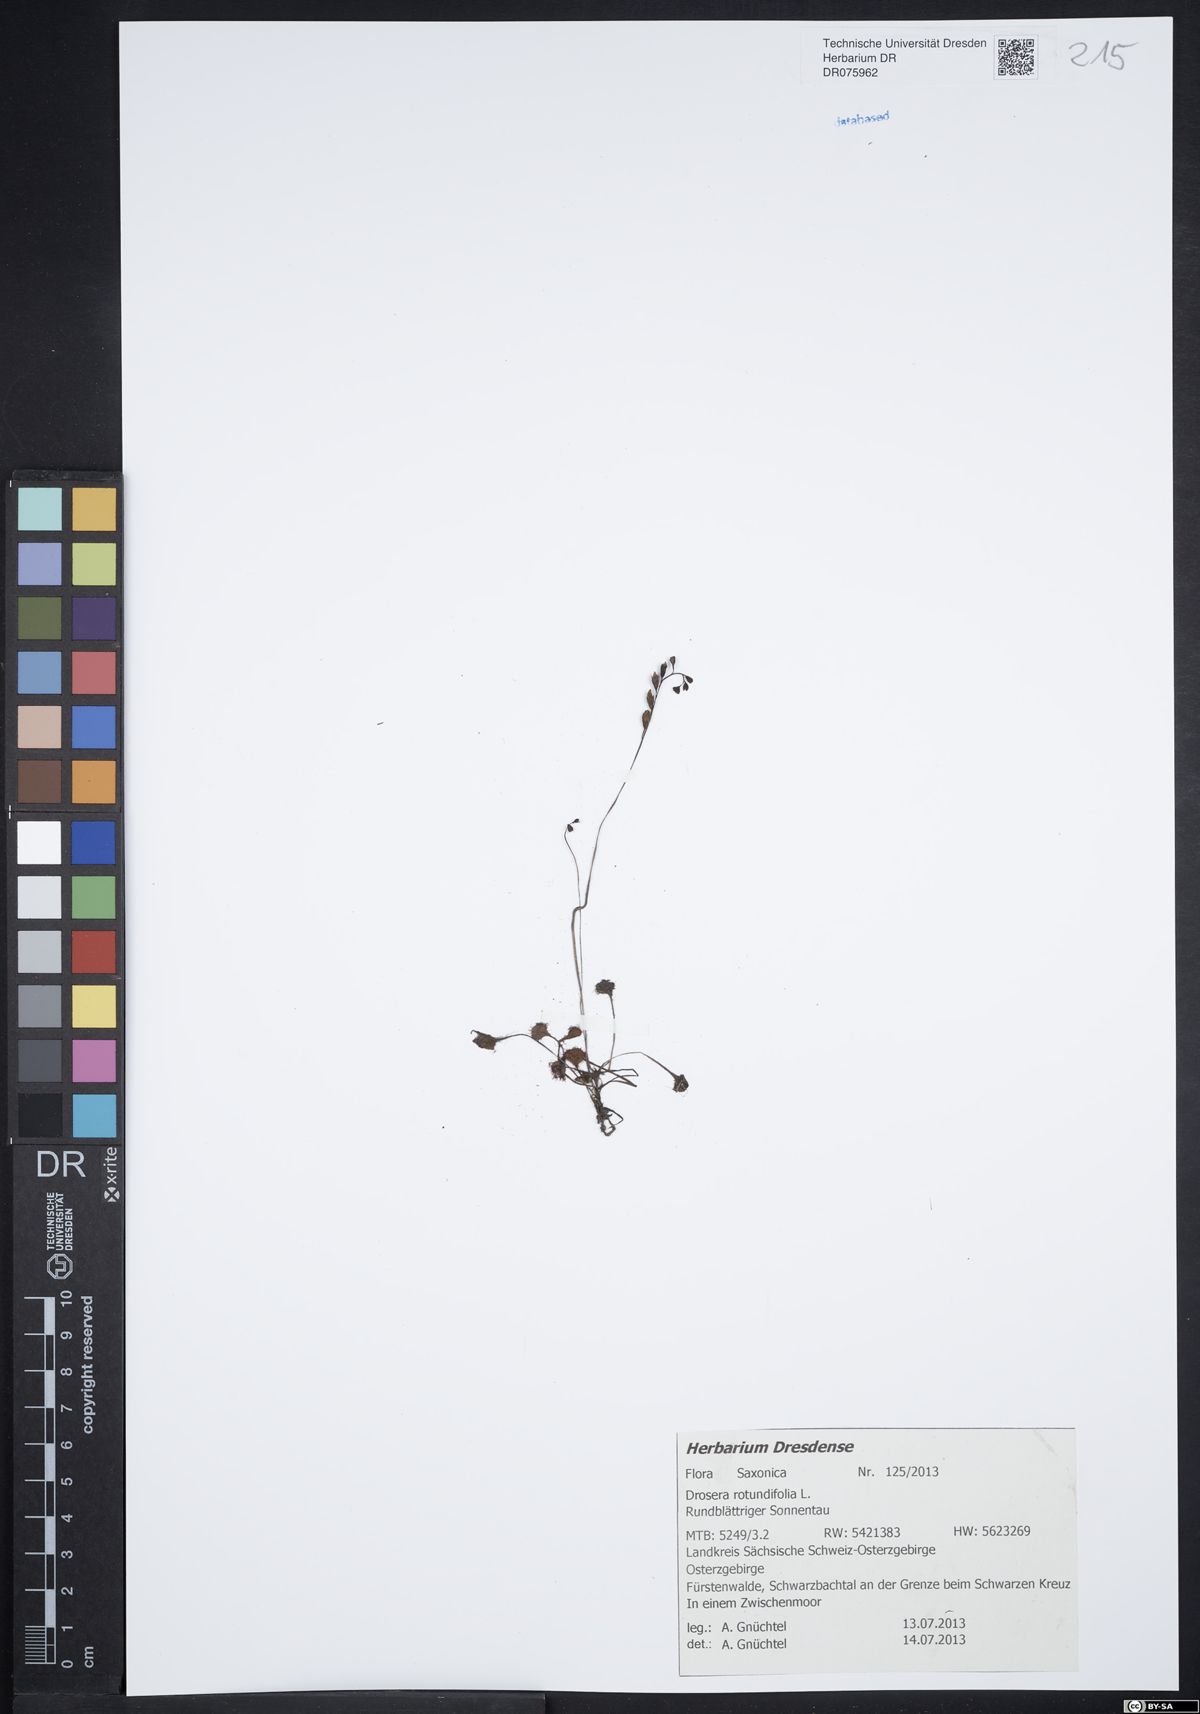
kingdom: Plantae
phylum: Tracheophyta
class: Magnoliopsida
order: Caryophyllales
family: Droseraceae
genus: Drosera
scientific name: Drosera rotundifolia
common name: Round-leaved sundew
